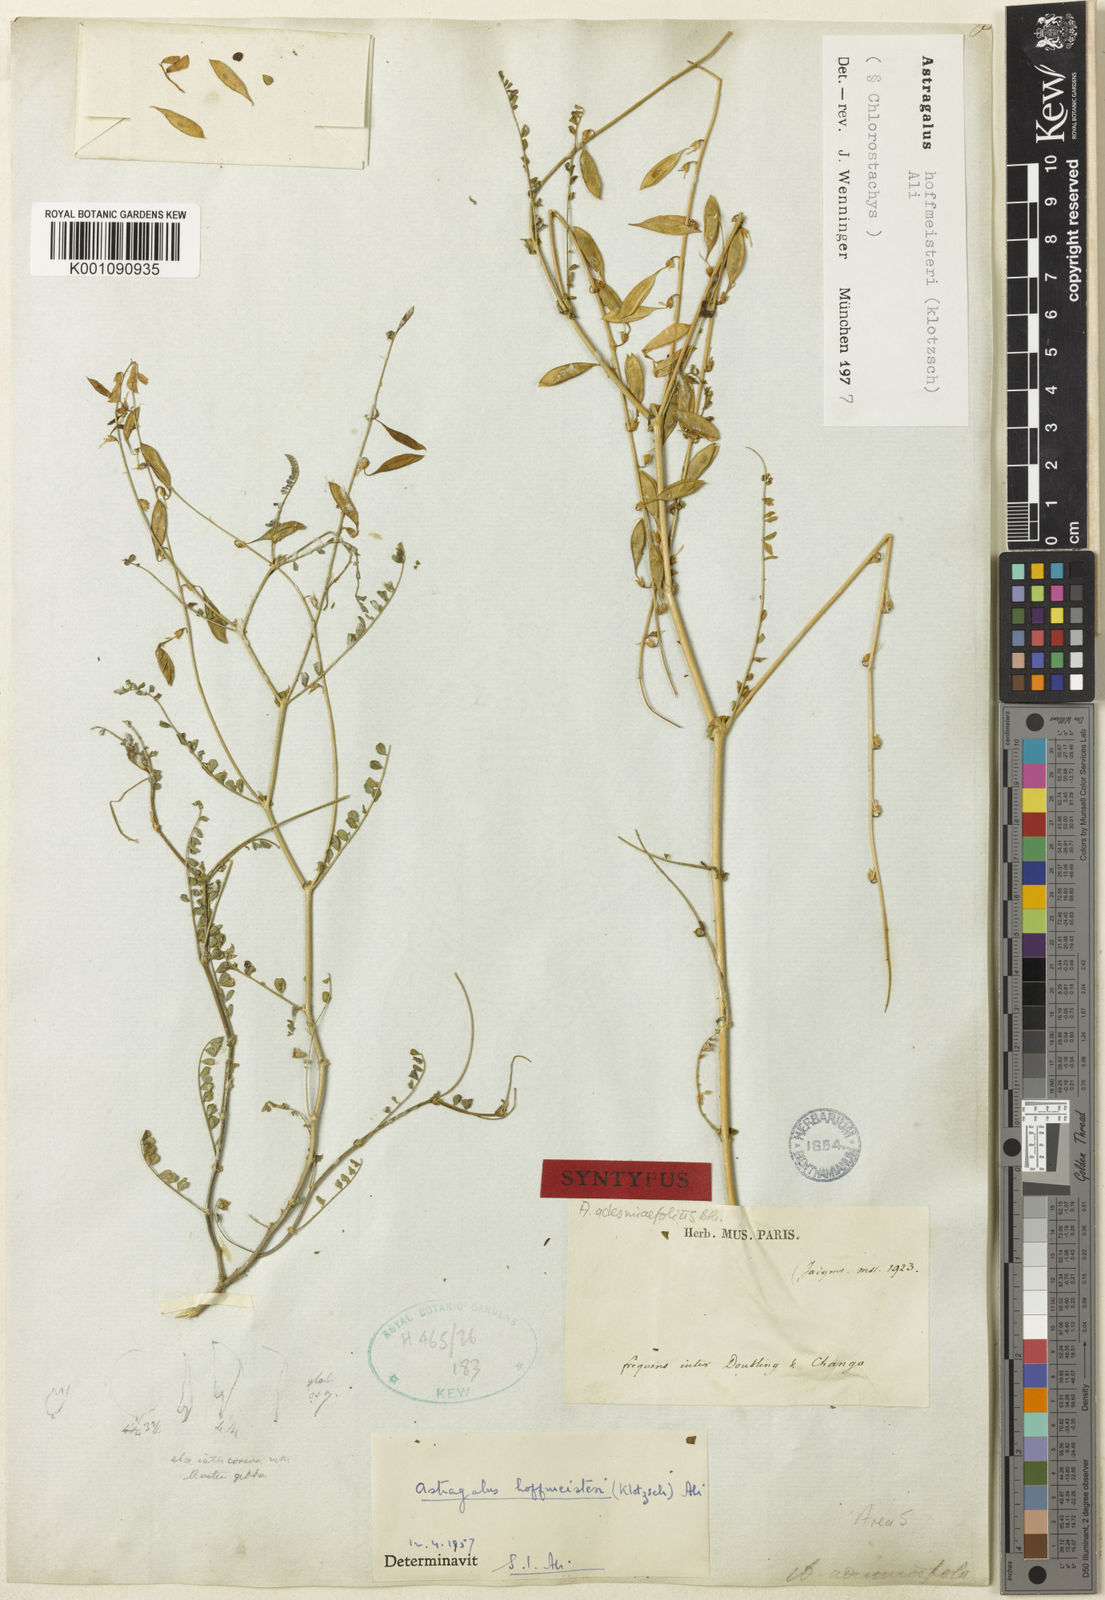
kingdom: Plantae
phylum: Tracheophyta
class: Magnoliopsida
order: Fabales
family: Fabaceae
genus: Astragalus
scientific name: Astragalus hoffmeisteri
